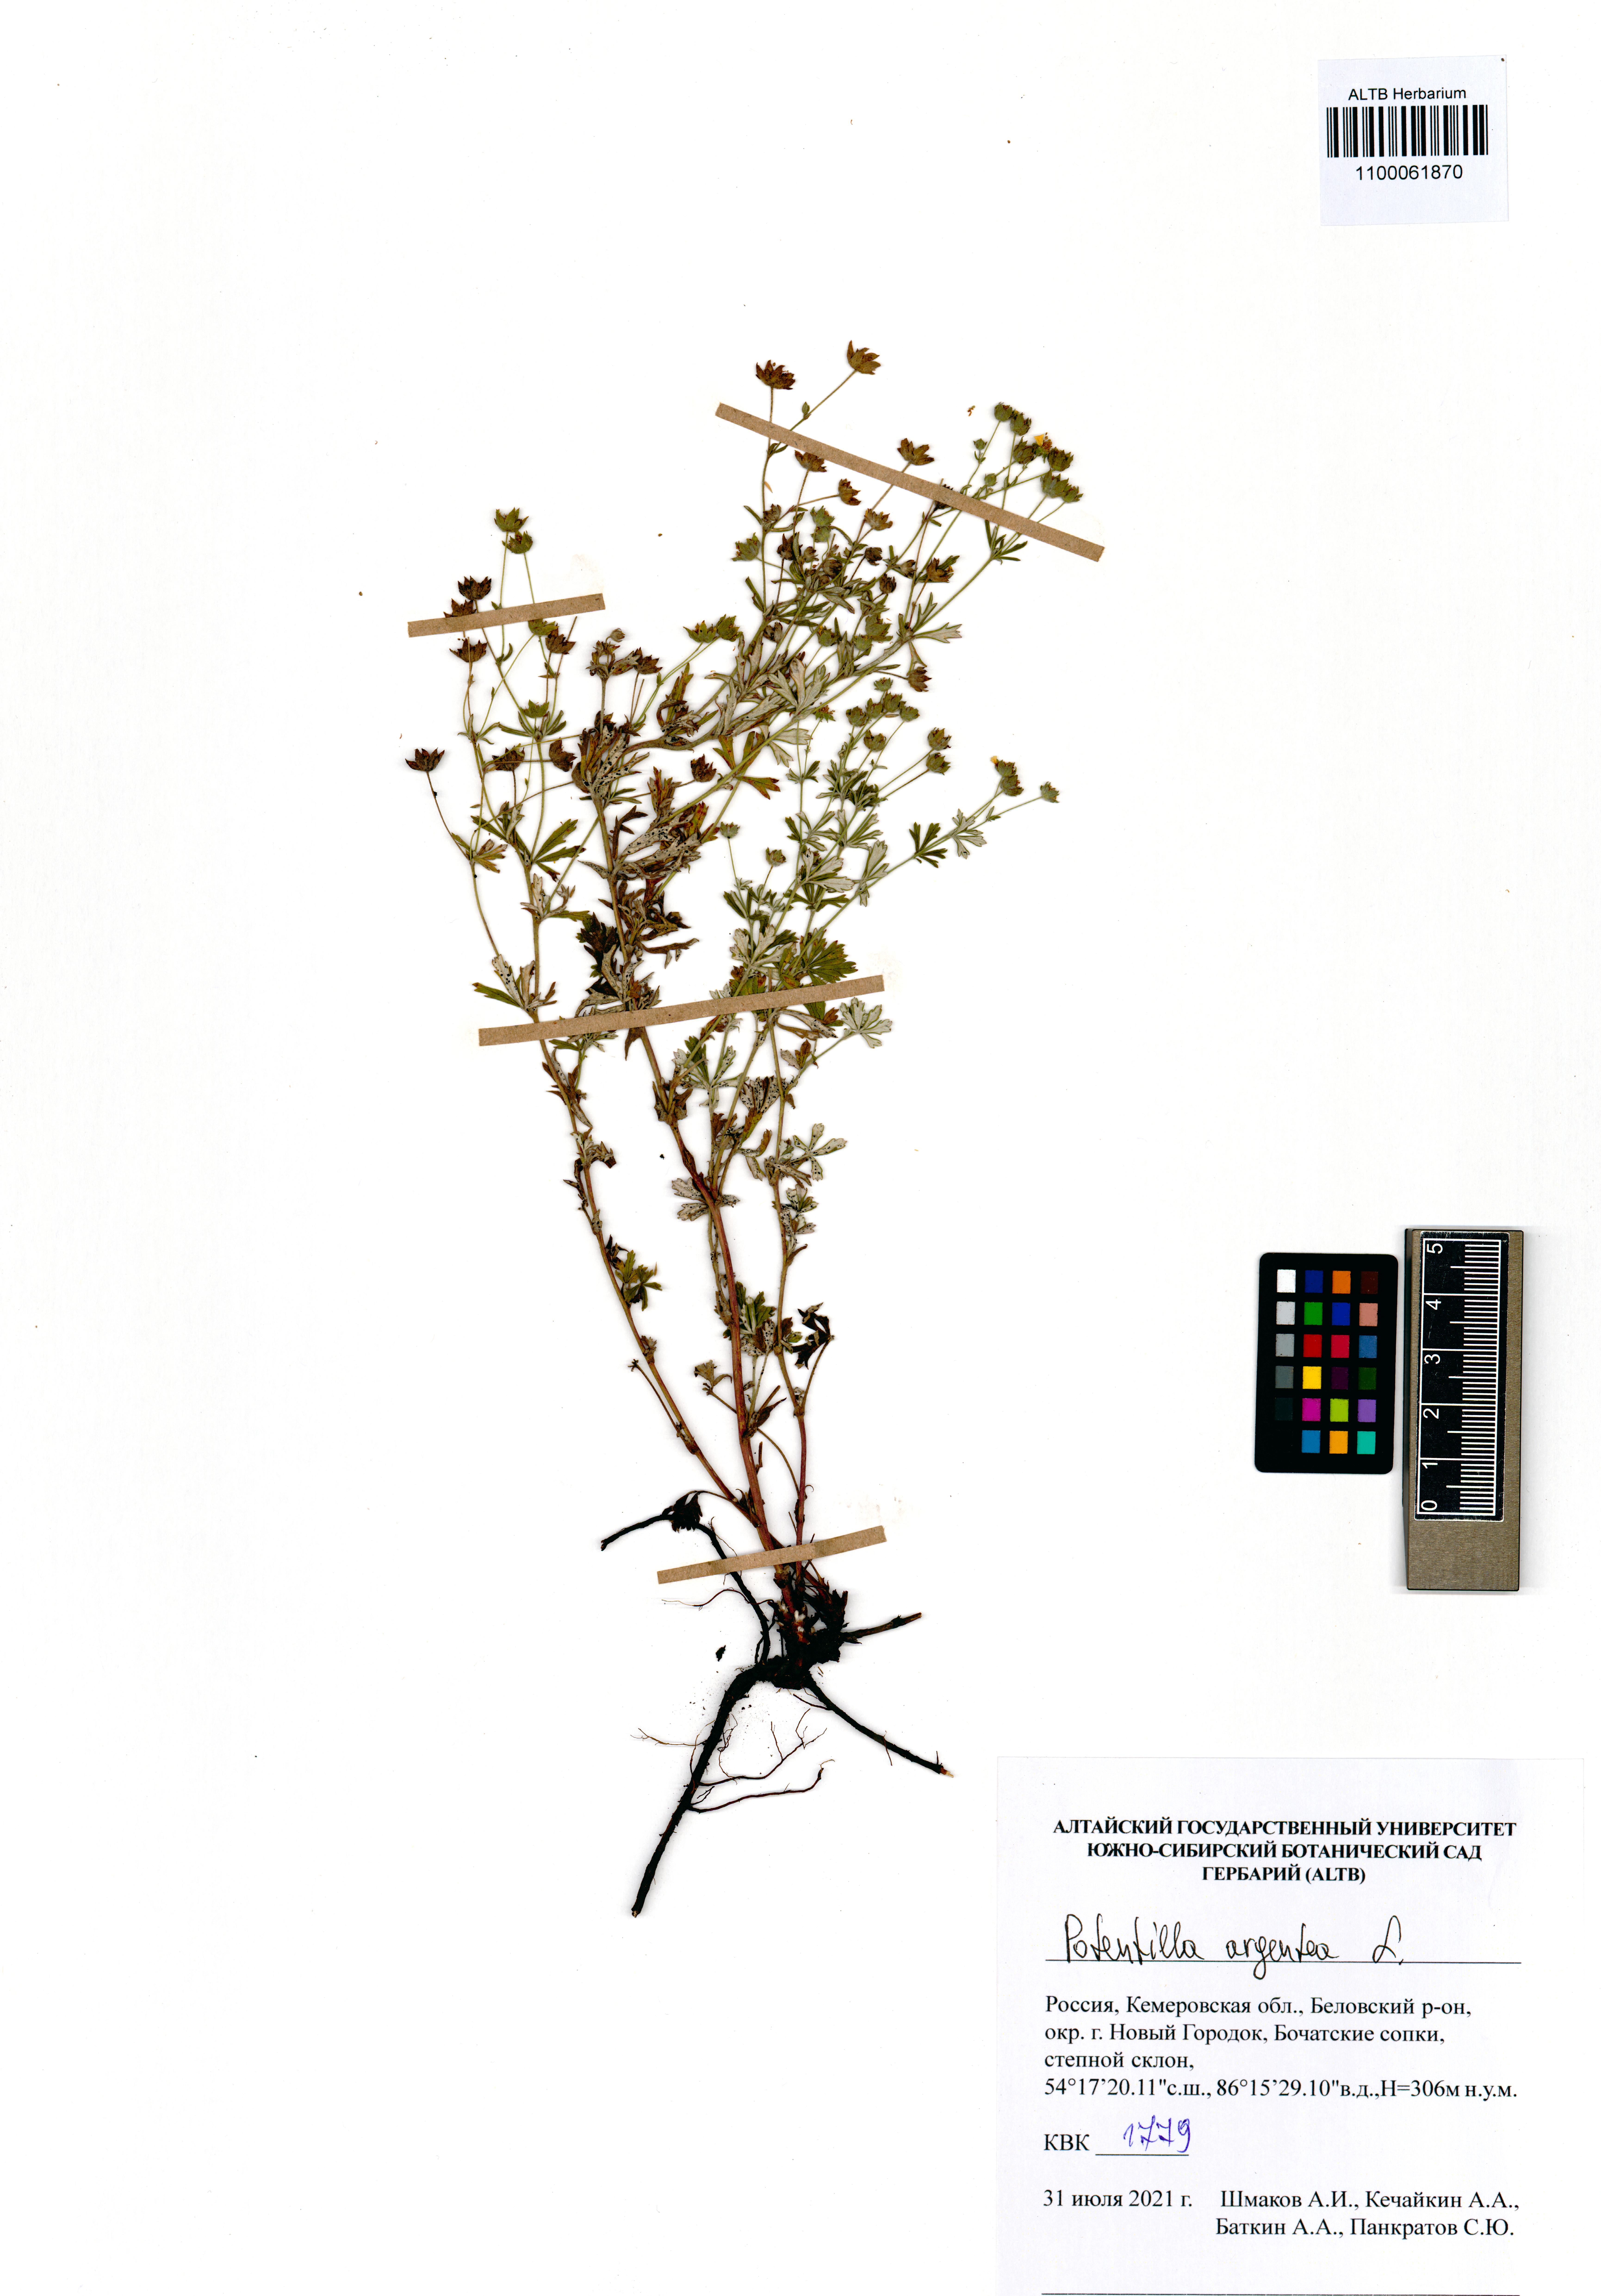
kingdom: Plantae
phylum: Tracheophyta
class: Magnoliopsida
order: Rosales
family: Rosaceae
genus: Potentilla
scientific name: Potentilla argentea
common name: Hoary cinquefoil
